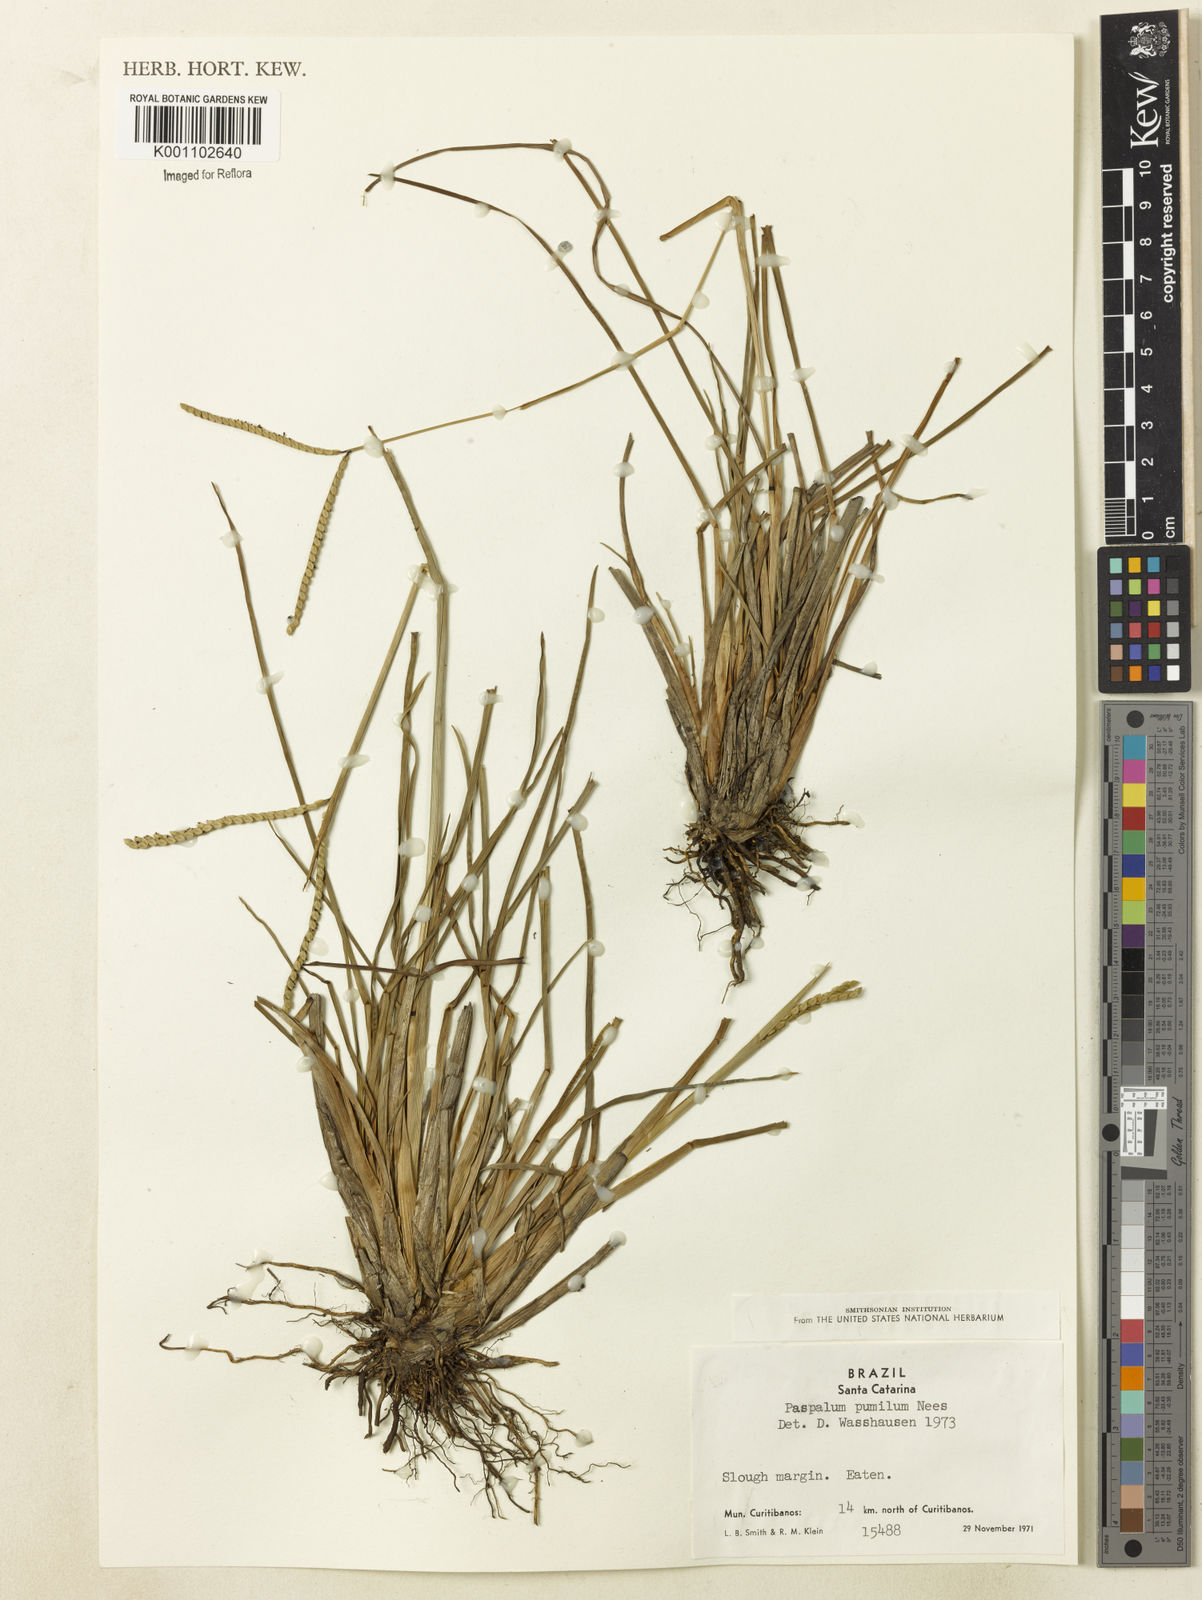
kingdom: Plantae
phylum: Tracheophyta
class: Liliopsida
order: Poales
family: Poaceae
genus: Paspalum
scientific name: Paspalum ramboi
